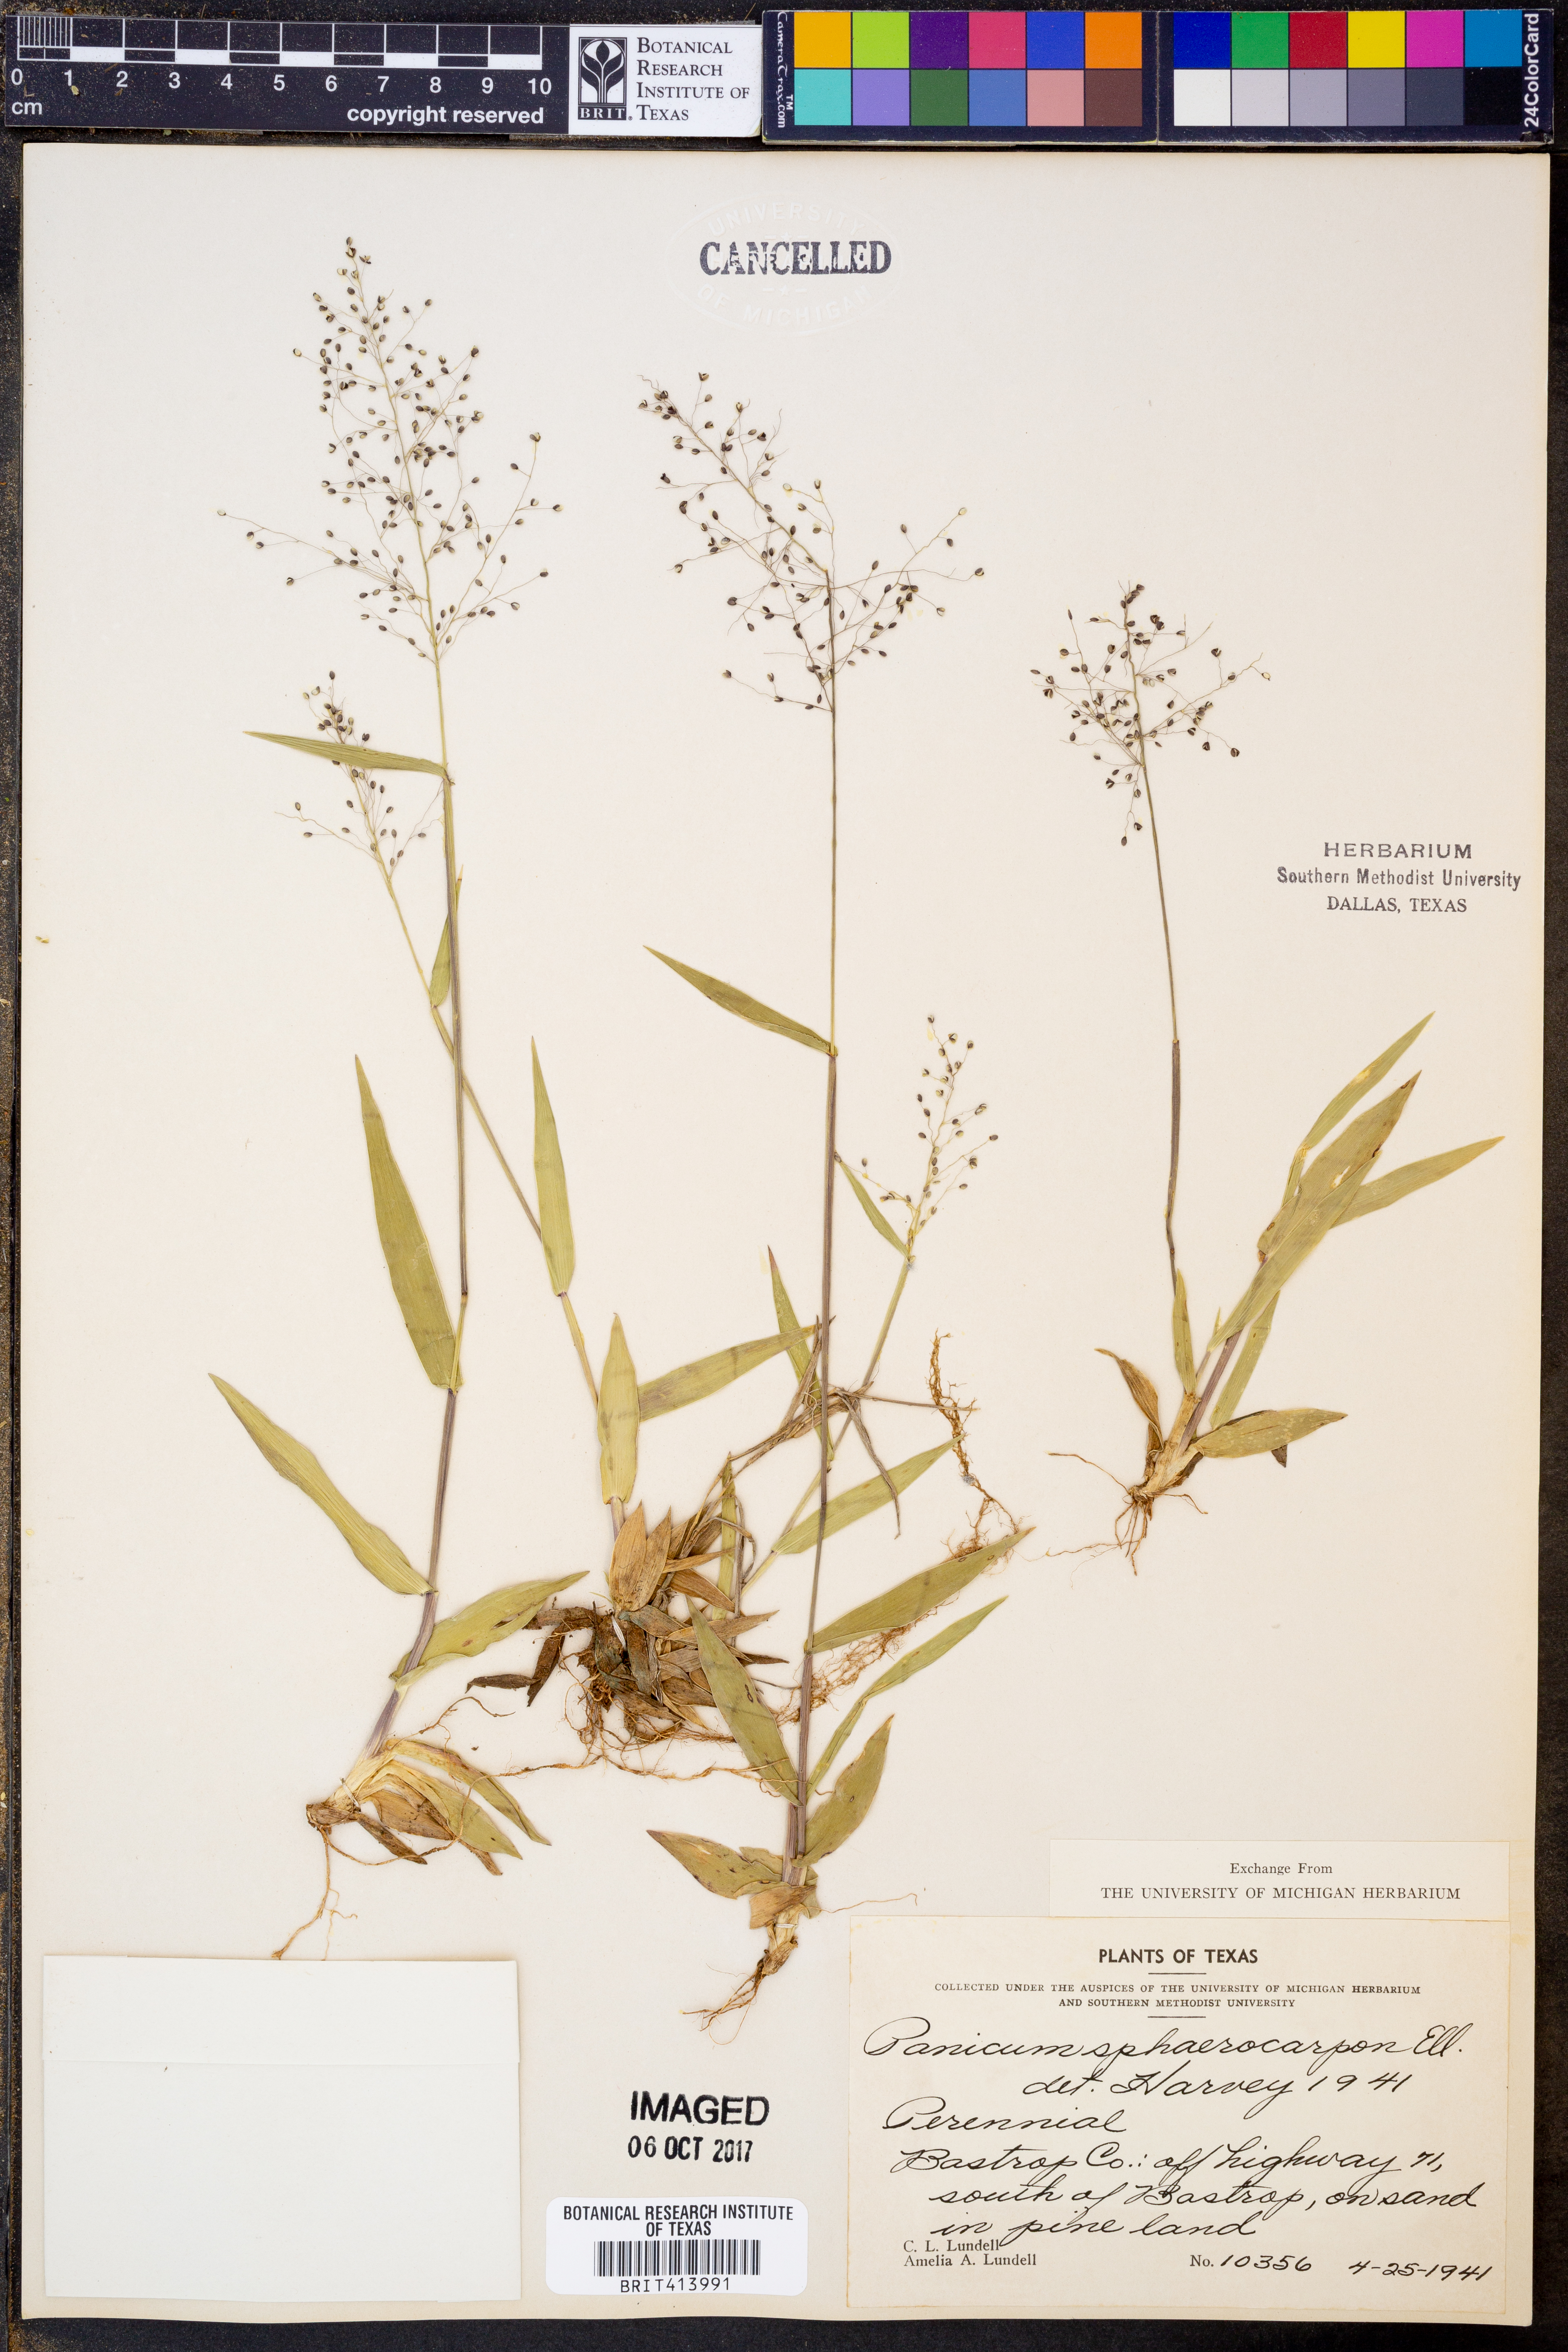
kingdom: Plantae
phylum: Tracheophyta
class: Liliopsida
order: Poales
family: Poaceae
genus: Dichanthelium
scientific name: Dichanthelium sphaerocarpon
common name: Round-fruited panicgrass
